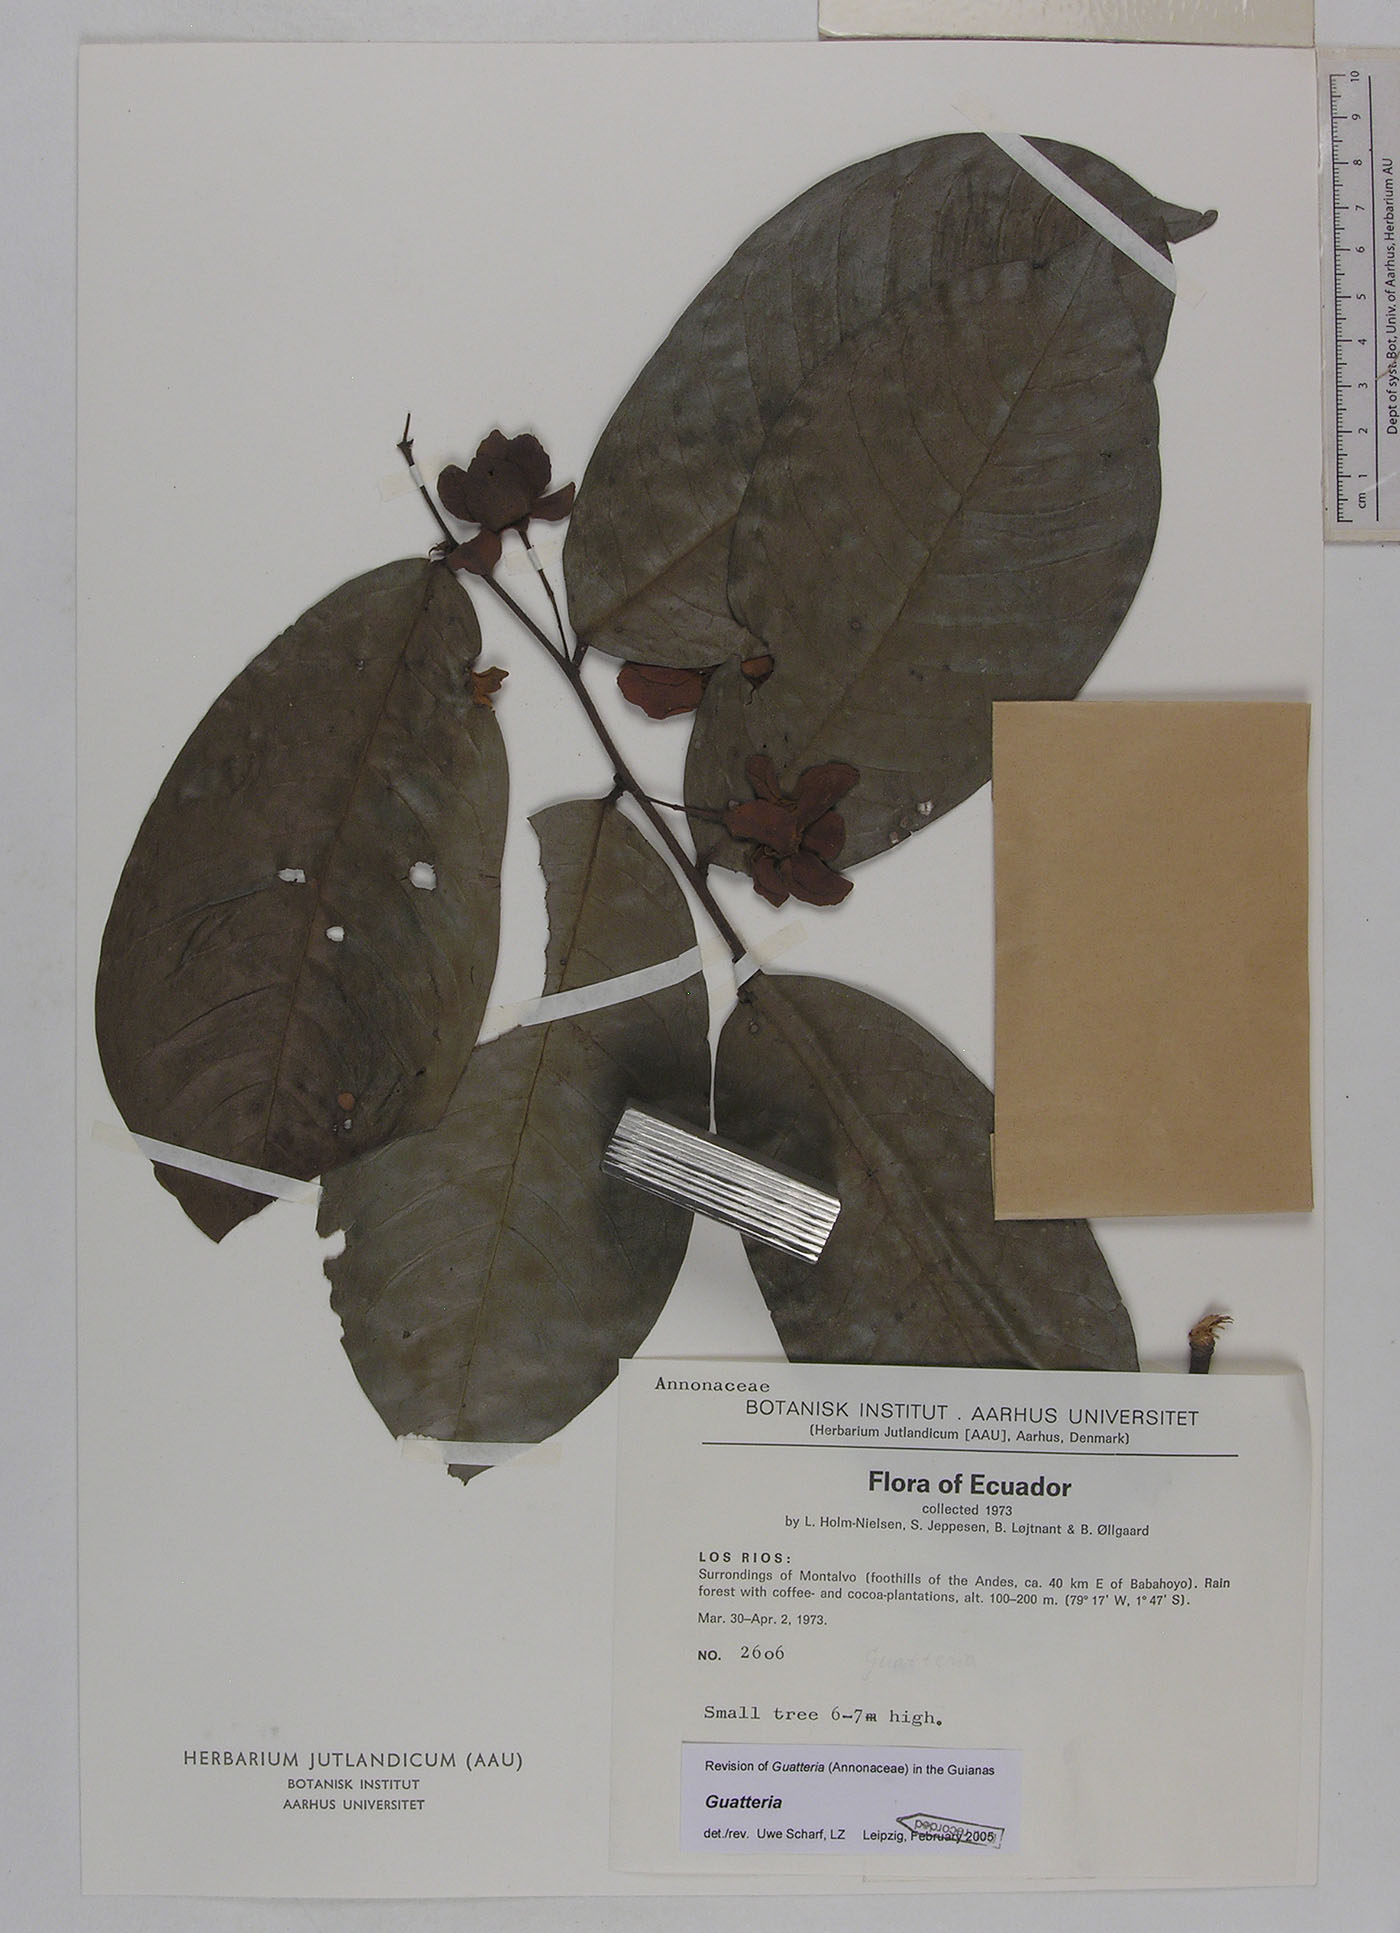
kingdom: Plantae
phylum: Tracheophyta
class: Magnoliopsida
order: Magnoliales
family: Annonaceae
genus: Guatteria
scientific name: Guatteria microcarpa
